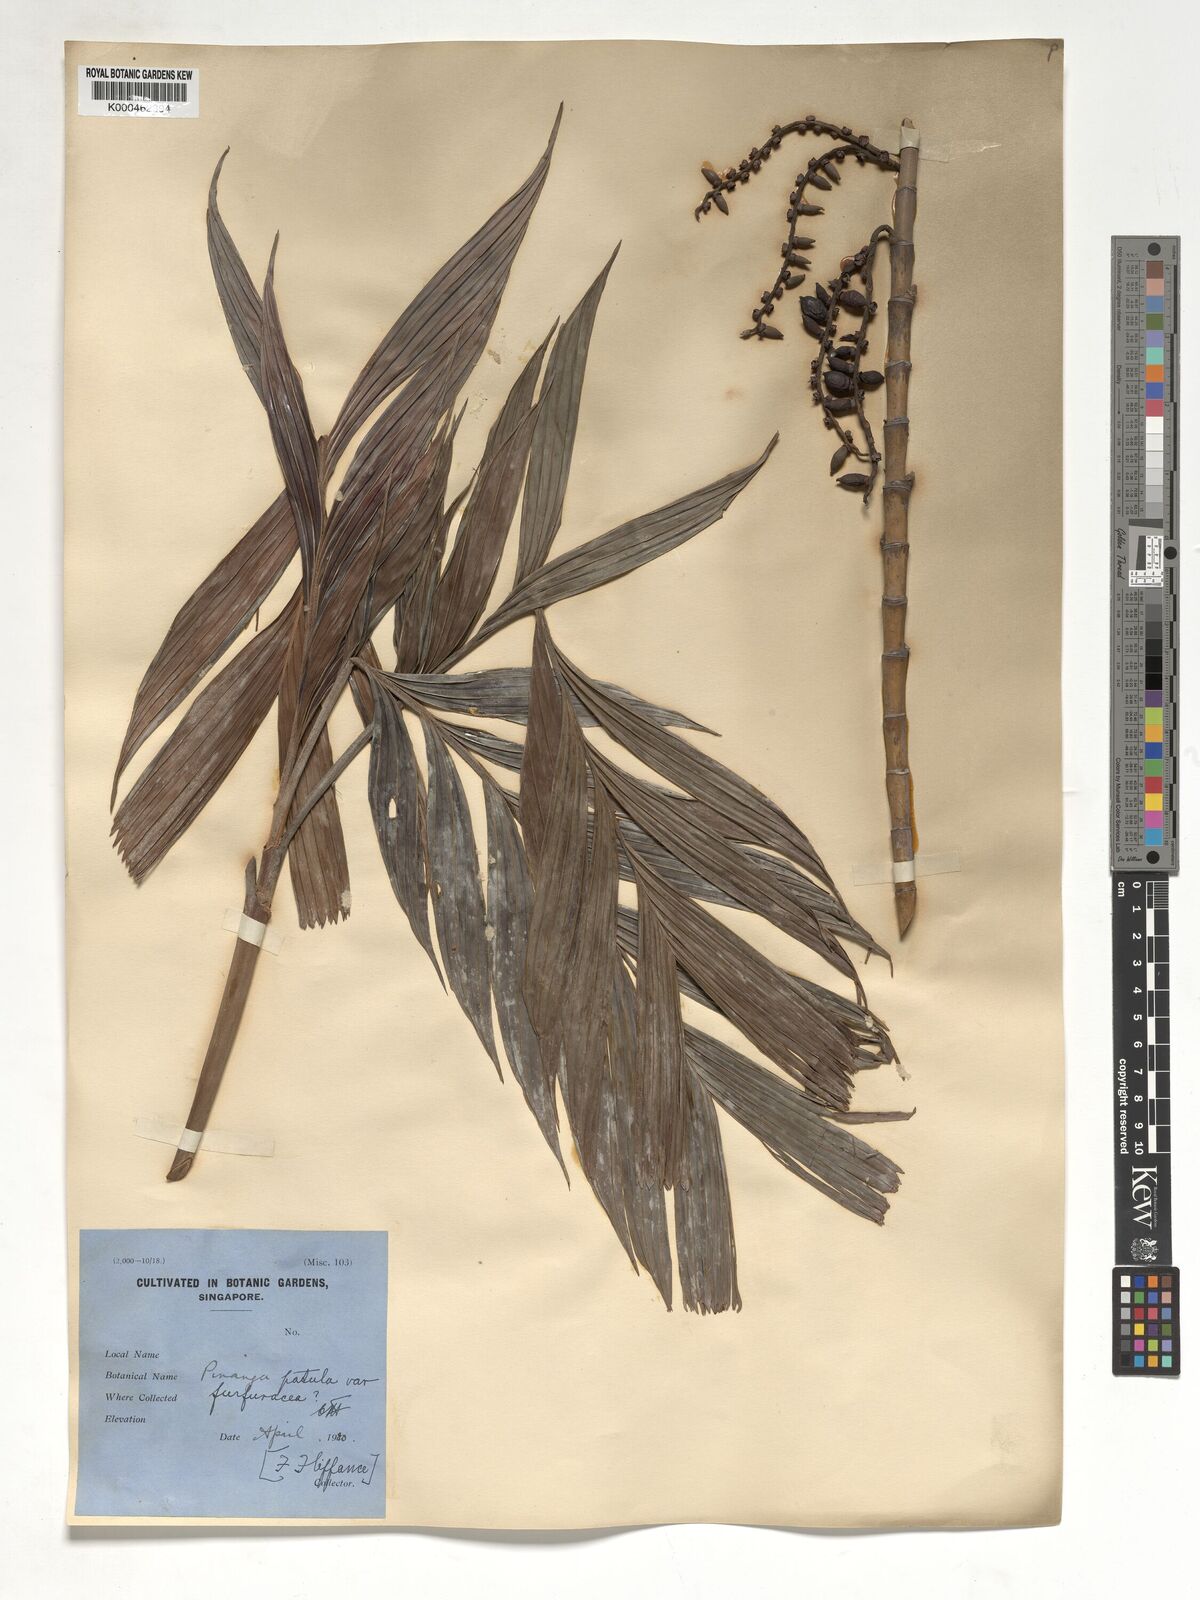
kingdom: Plantae
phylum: Tracheophyta
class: Liliopsida
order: Arecales
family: Arecaceae
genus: Pinanga
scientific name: Pinanga patula
